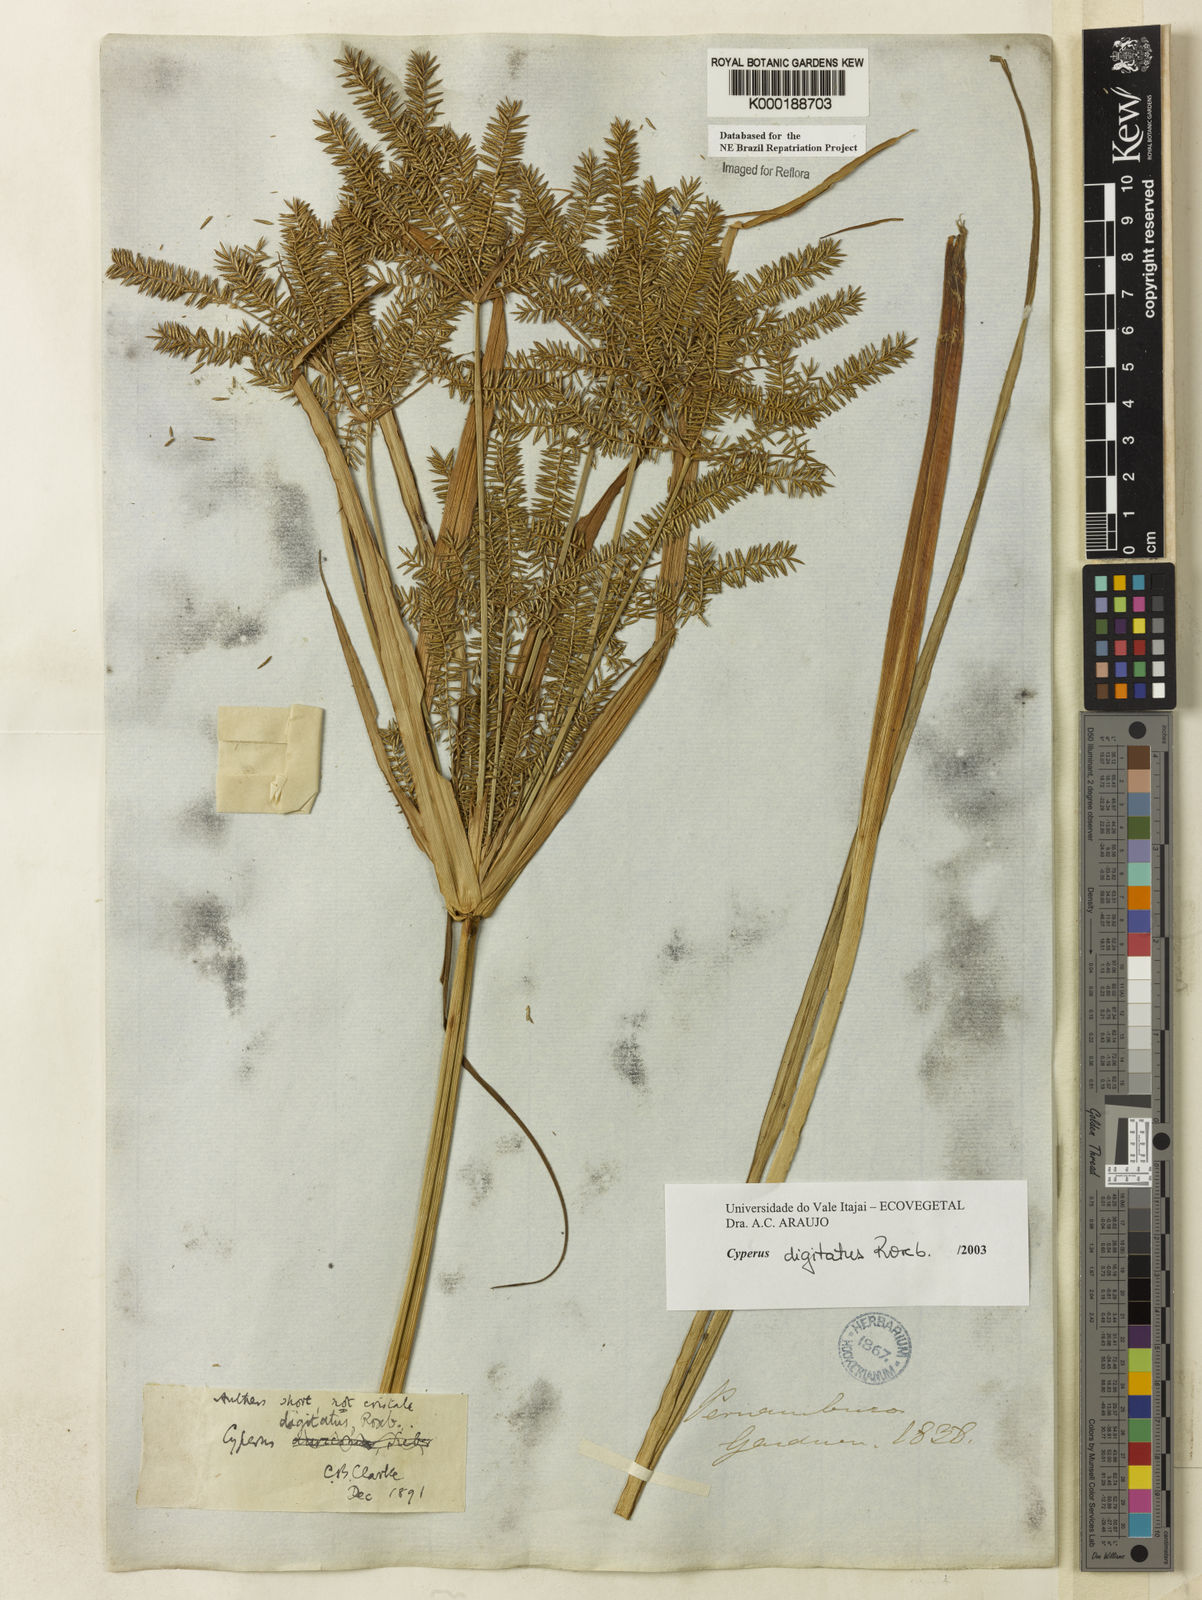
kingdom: Plantae
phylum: Tracheophyta
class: Liliopsida
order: Poales
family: Cyperaceae
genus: Cyperus
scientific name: Cyperus digitatus
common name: Finger flatsedge
